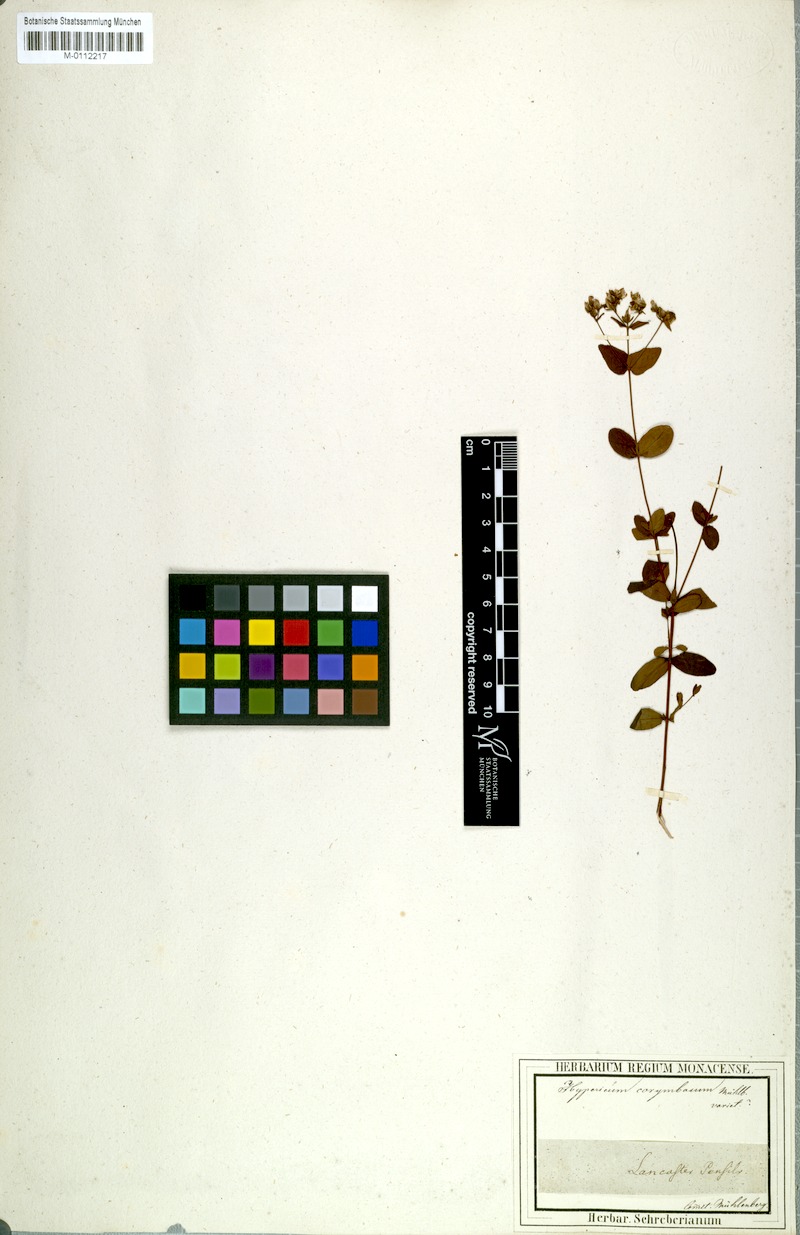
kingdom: Plantae
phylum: Tracheophyta
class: Magnoliopsida
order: Malpighiales
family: Hypericaceae
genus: Hypericum
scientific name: Hypericum punctatum
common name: Spotted st. john's-wort
